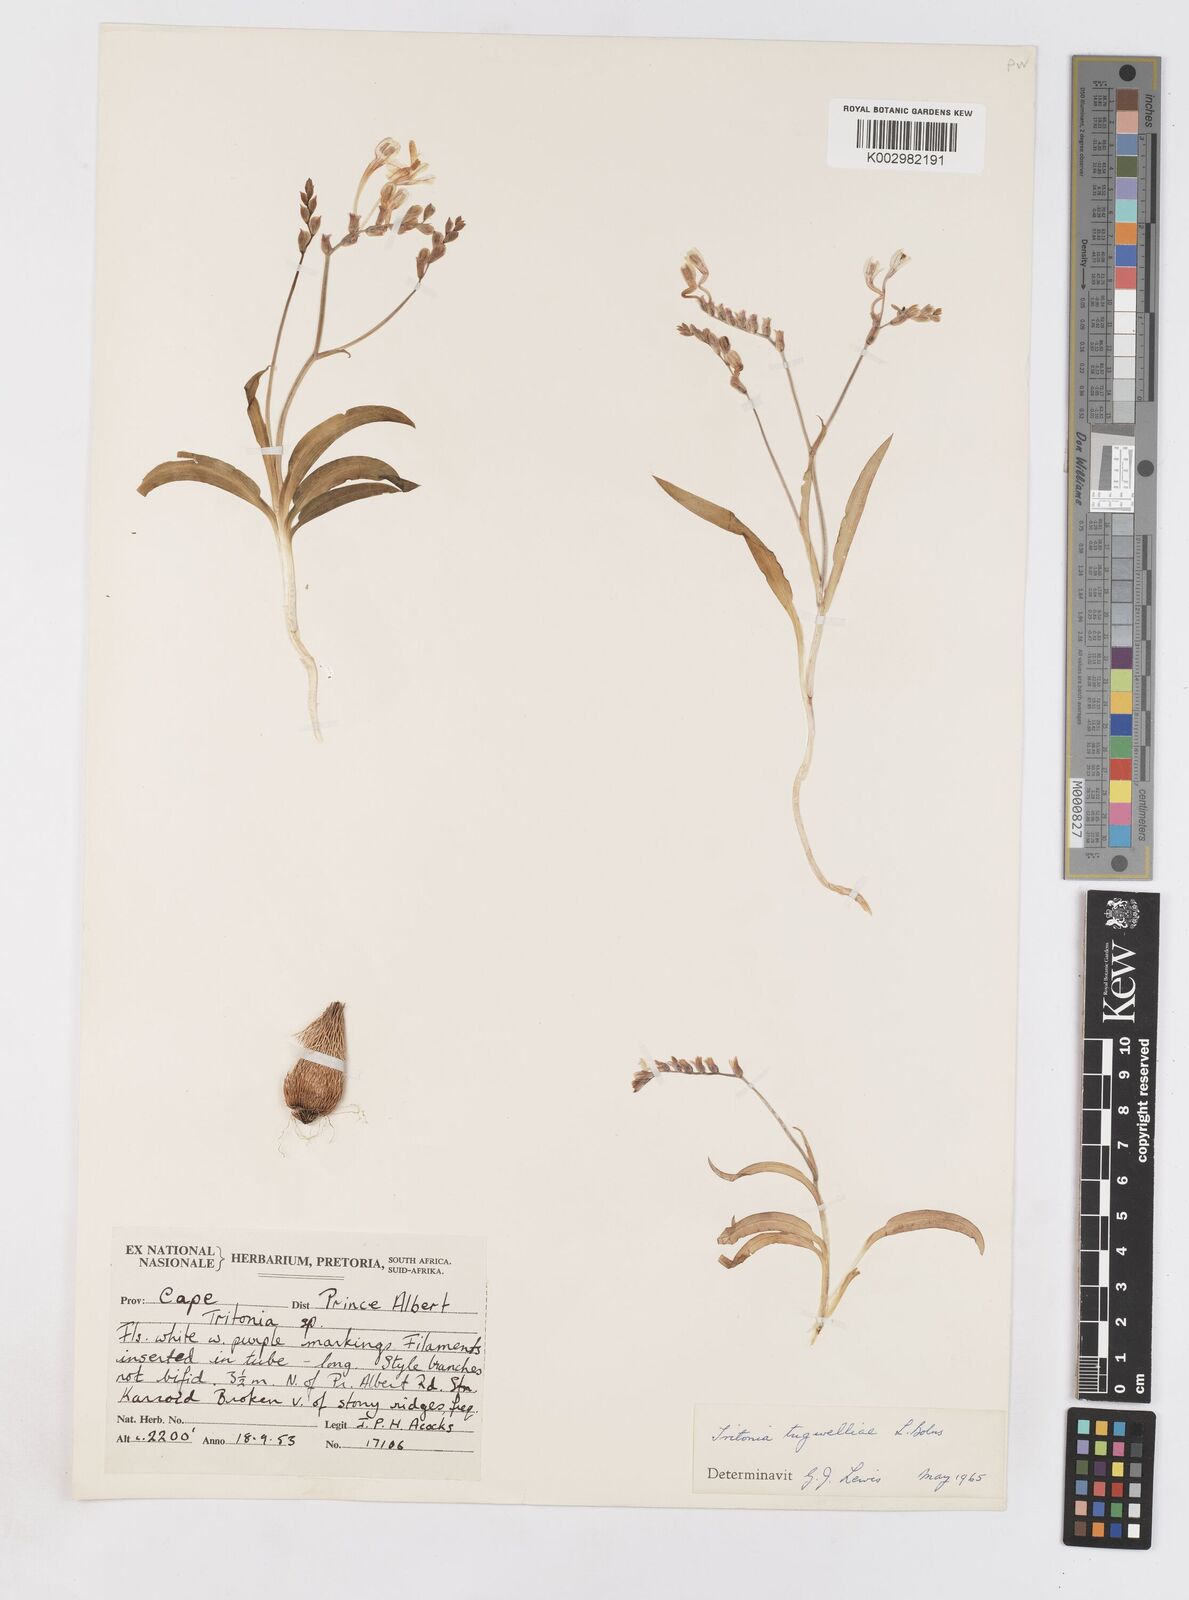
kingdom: Plantae
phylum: Tracheophyta
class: Liliopsida
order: Asparagales
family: Iridaceae
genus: Tritonia
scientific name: Tritonia tugwelliae
